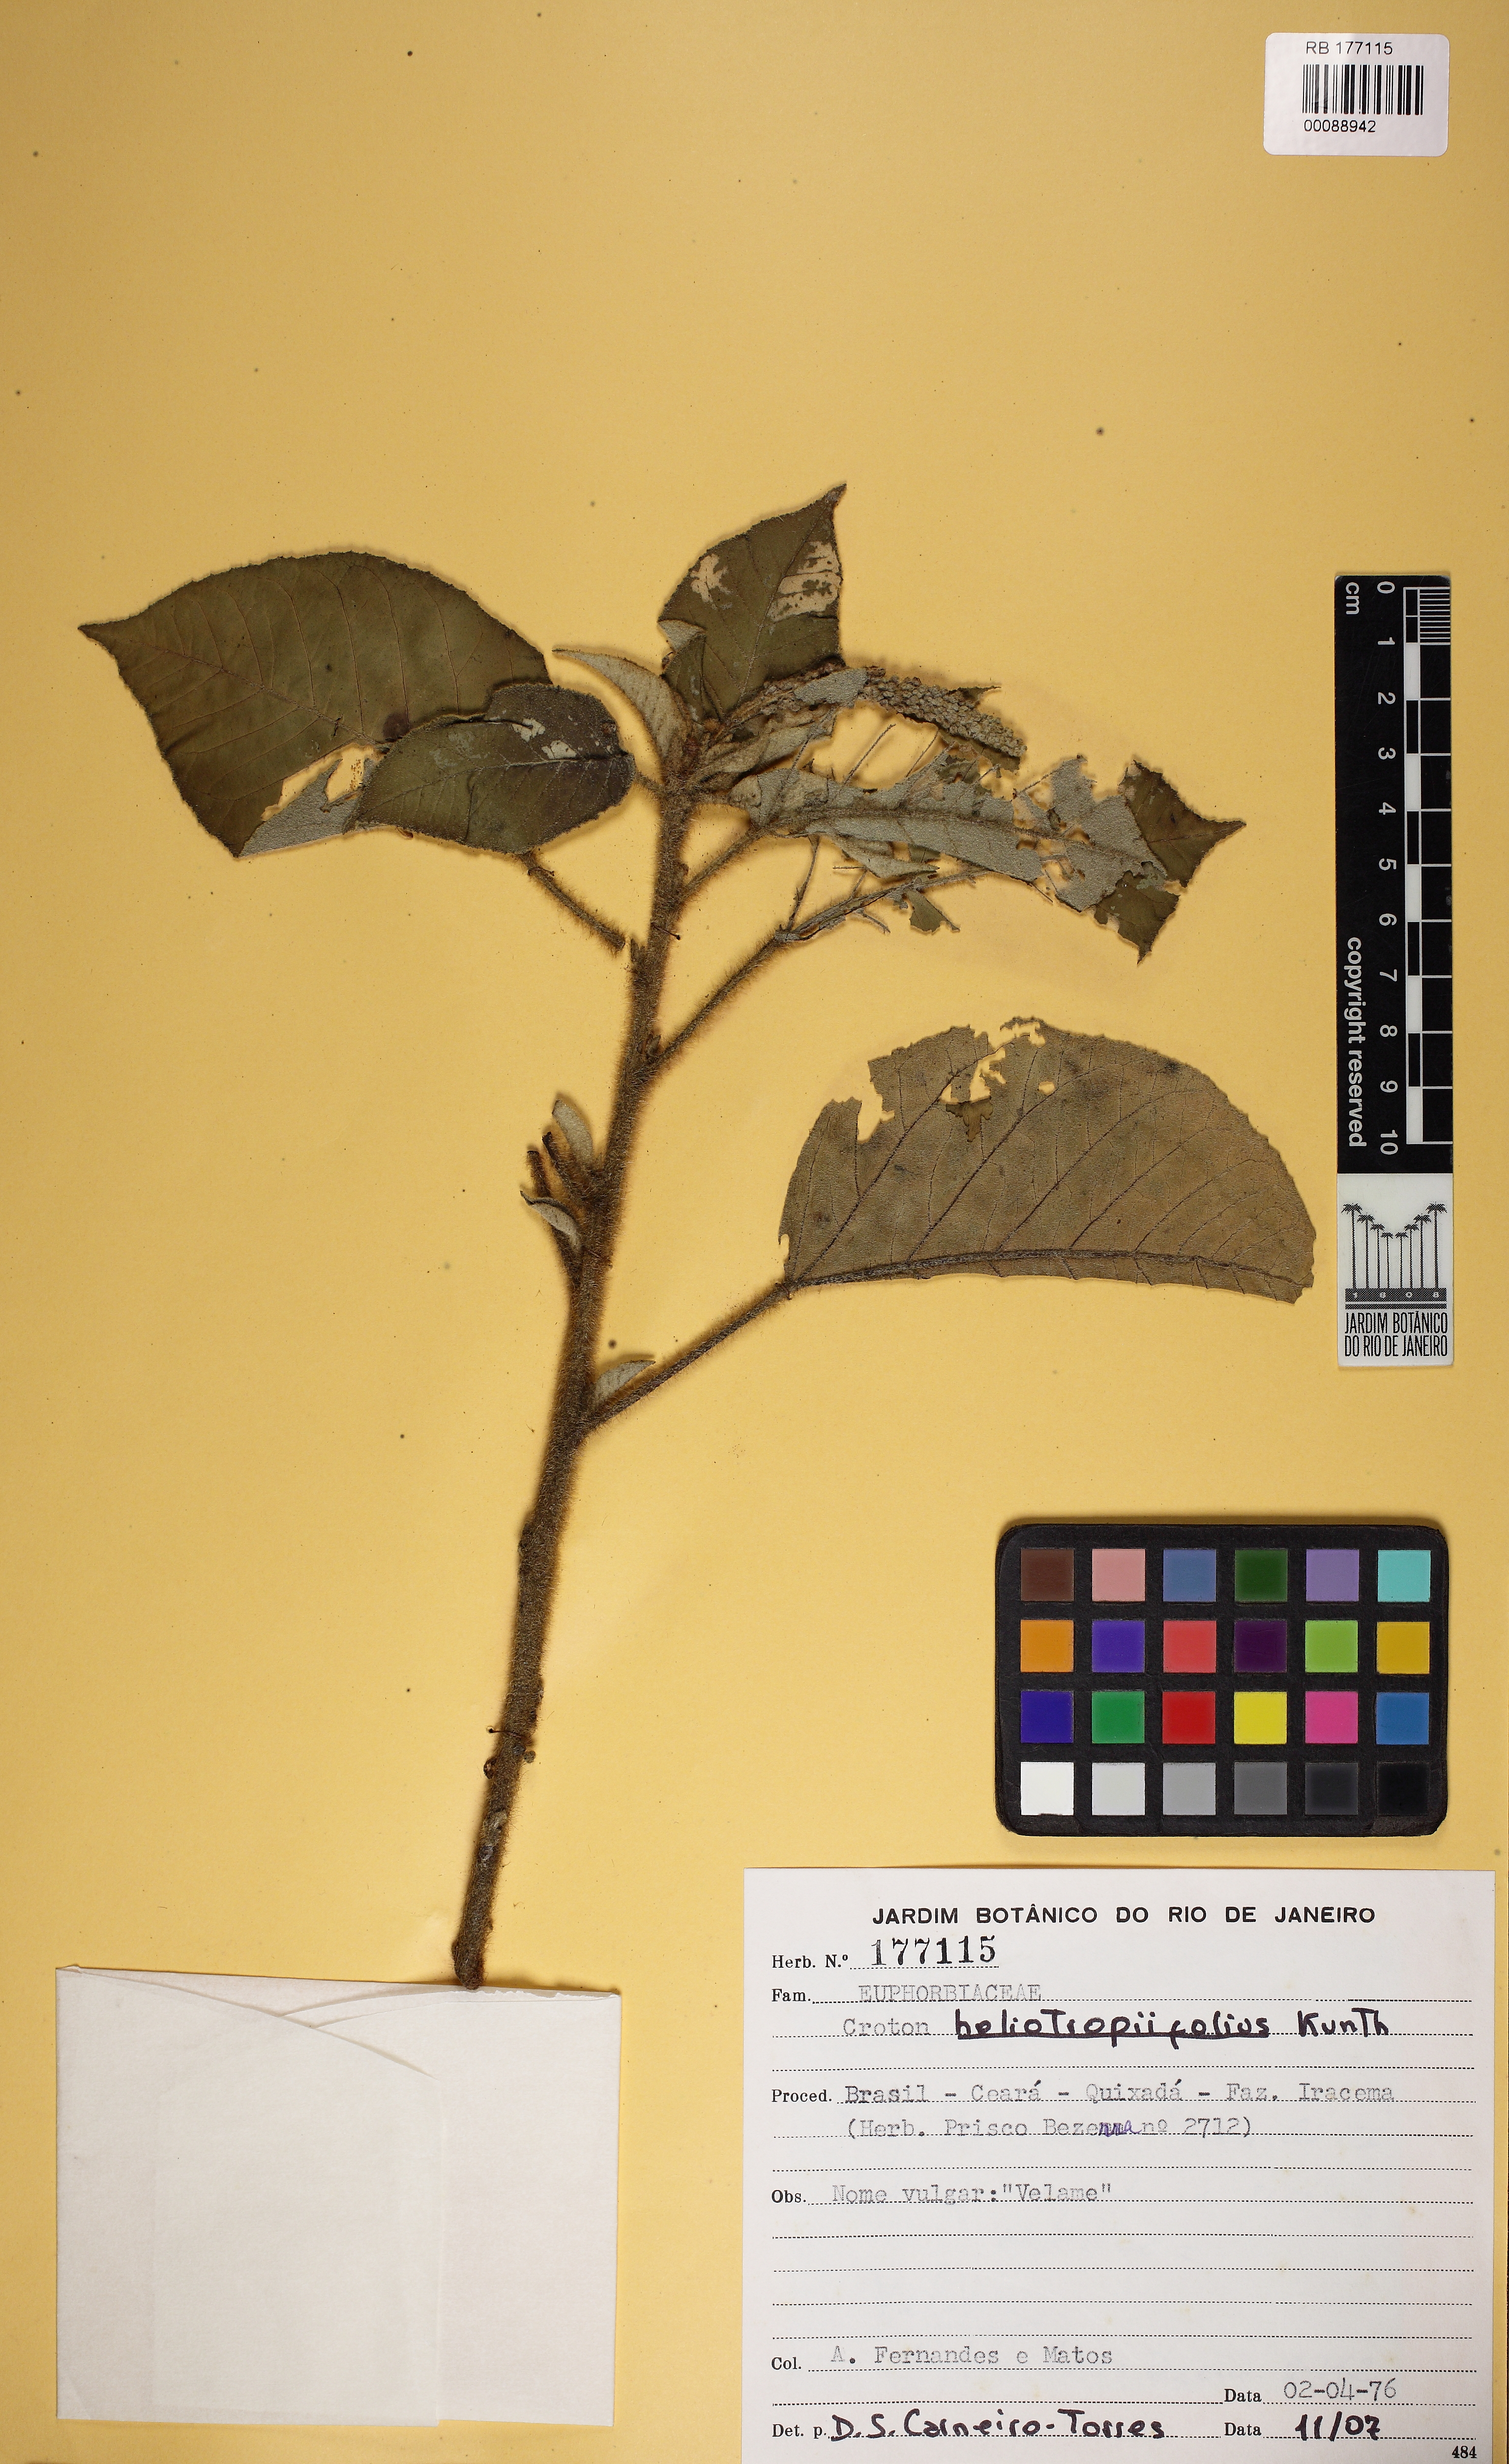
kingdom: Plantae
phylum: Tracheophyta
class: Magnoliopsida
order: Malpighiales
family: Euphorbiaceae
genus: Croton
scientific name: Croton heliotropiifolius
